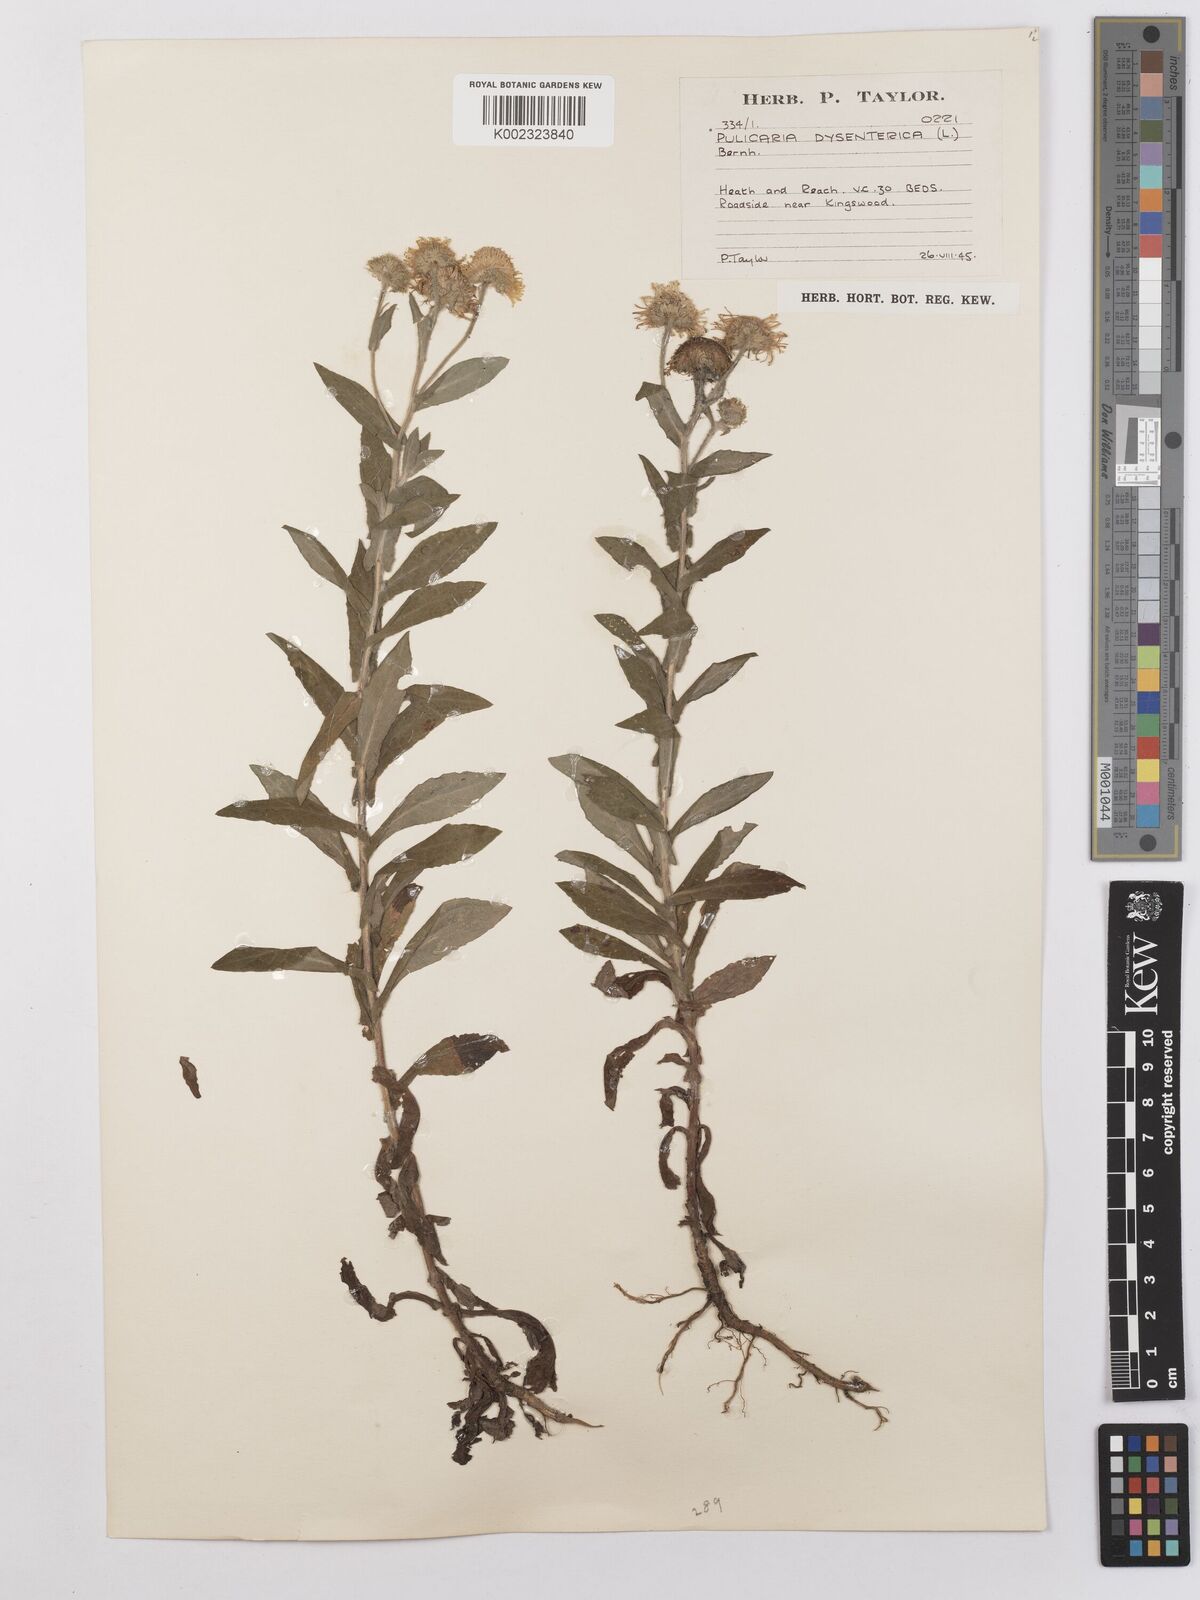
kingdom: Plantae
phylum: Tracheophyta
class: Magnoliopsida
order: Asterales
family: Asteraceae
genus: Pulicaria
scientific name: Pulicaria dysenterica
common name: Common fleabane
